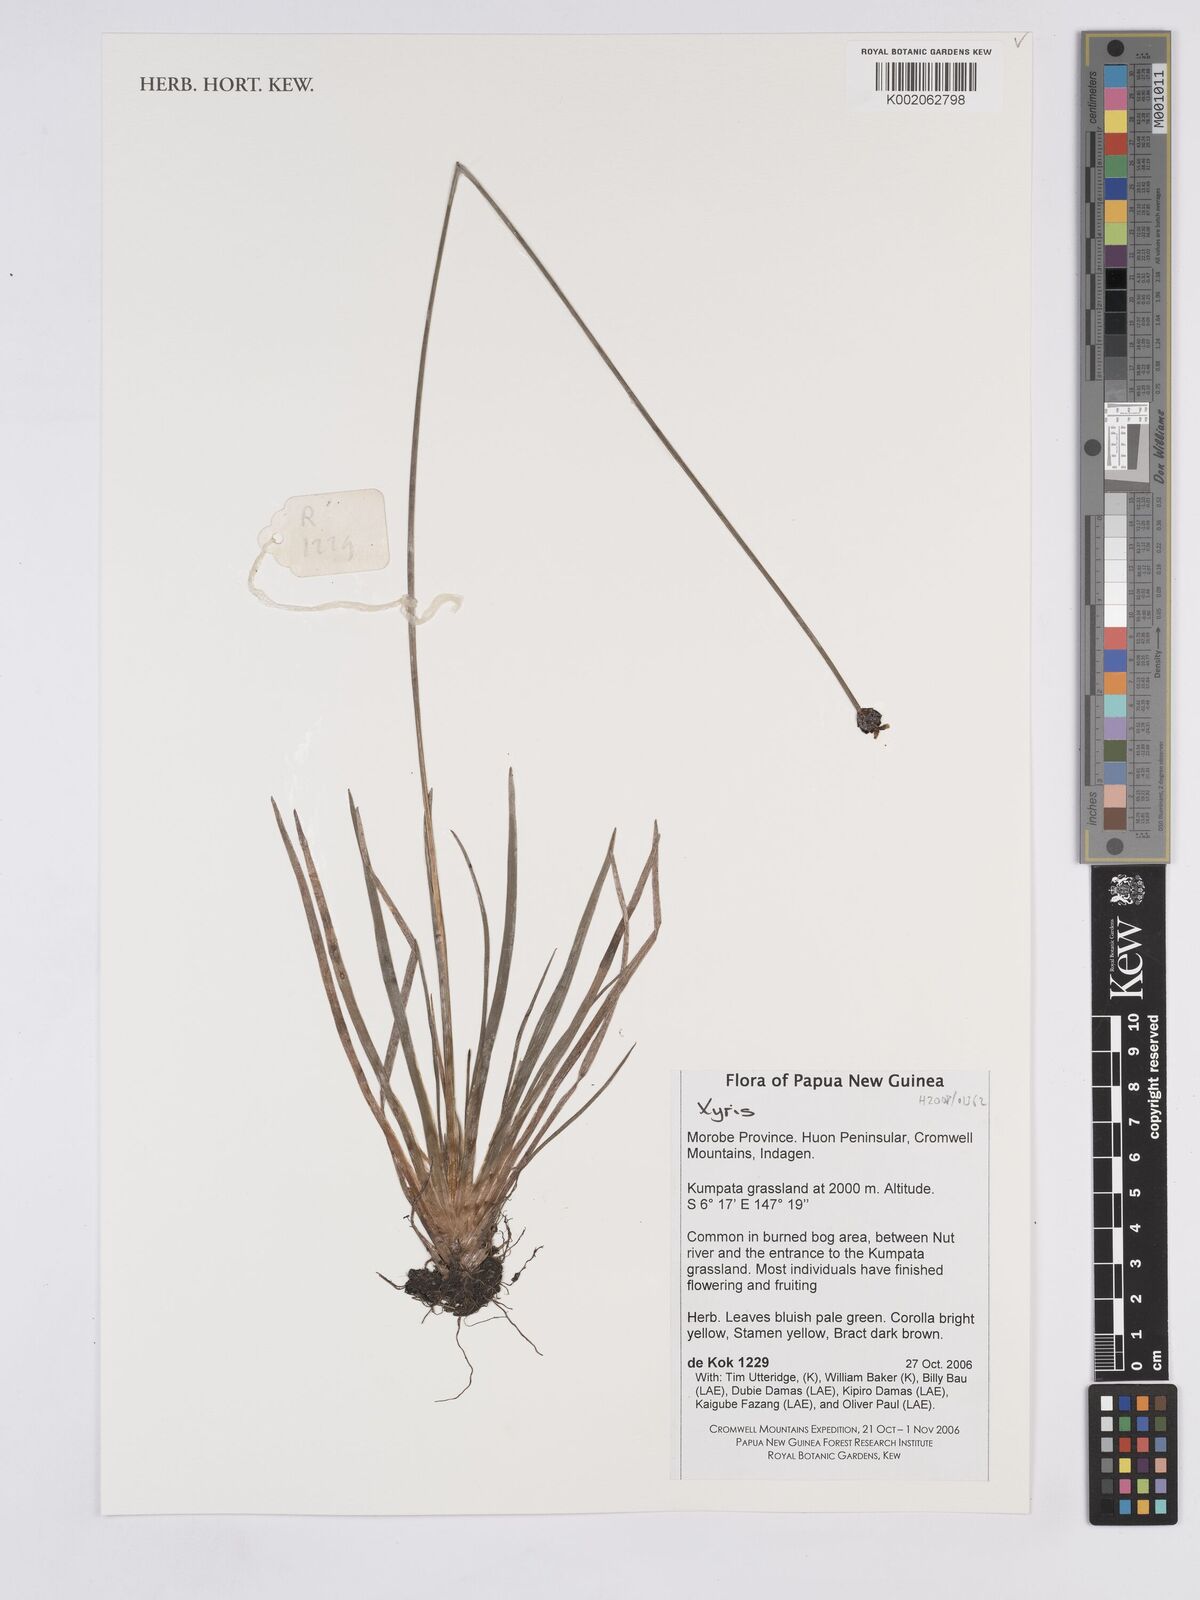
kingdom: Plantae
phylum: Tracheophyta
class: Liliopsida
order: Poales
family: Xyridaceae
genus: Xyris
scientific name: Xyris
